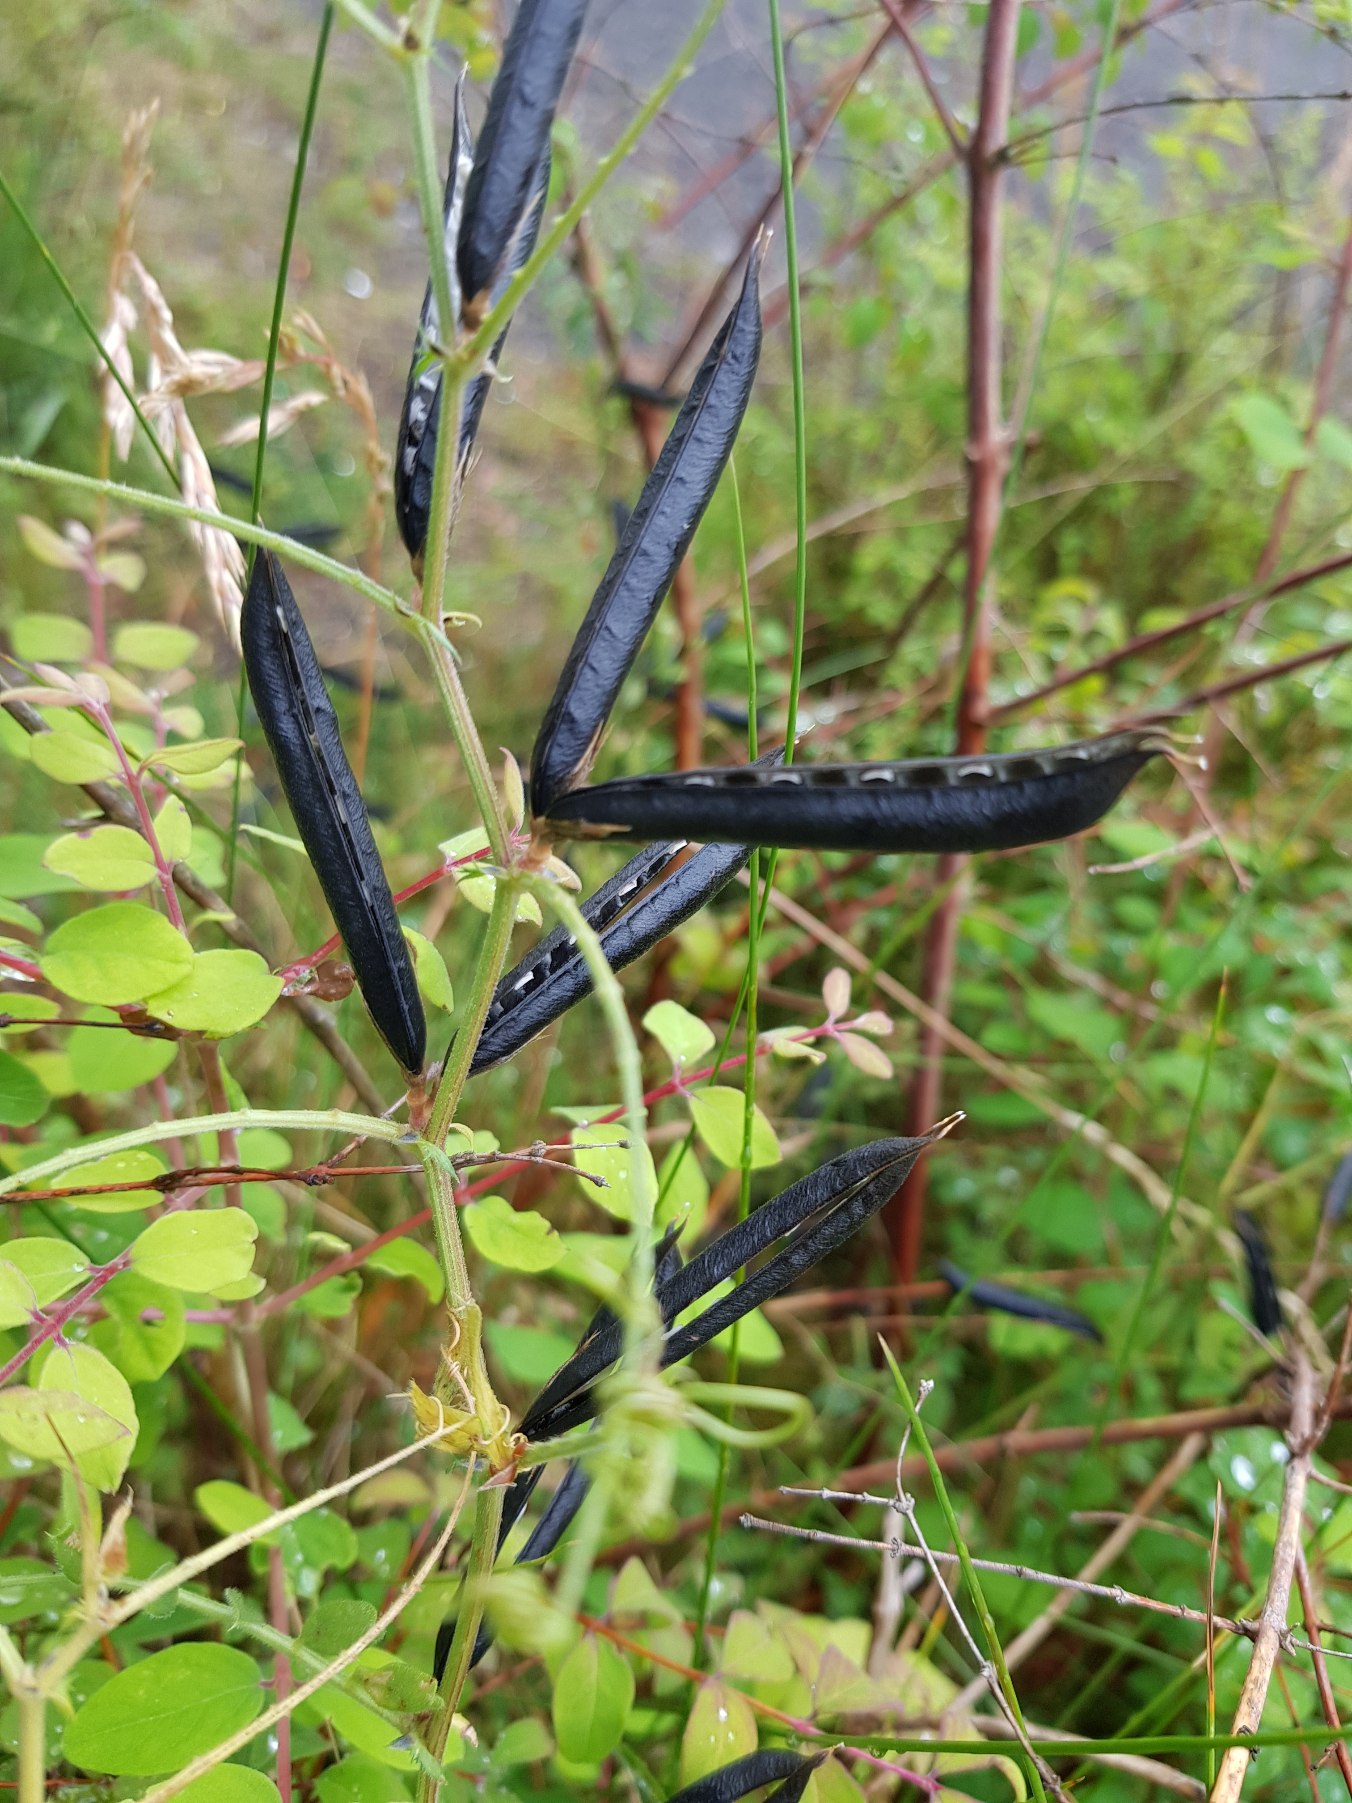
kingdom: Plantae
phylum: Tracheophyta
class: Magnoliopsida
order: Fabales
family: Fabaceae
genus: Vicia
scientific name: Vicia sativa
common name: Foder-vikke
